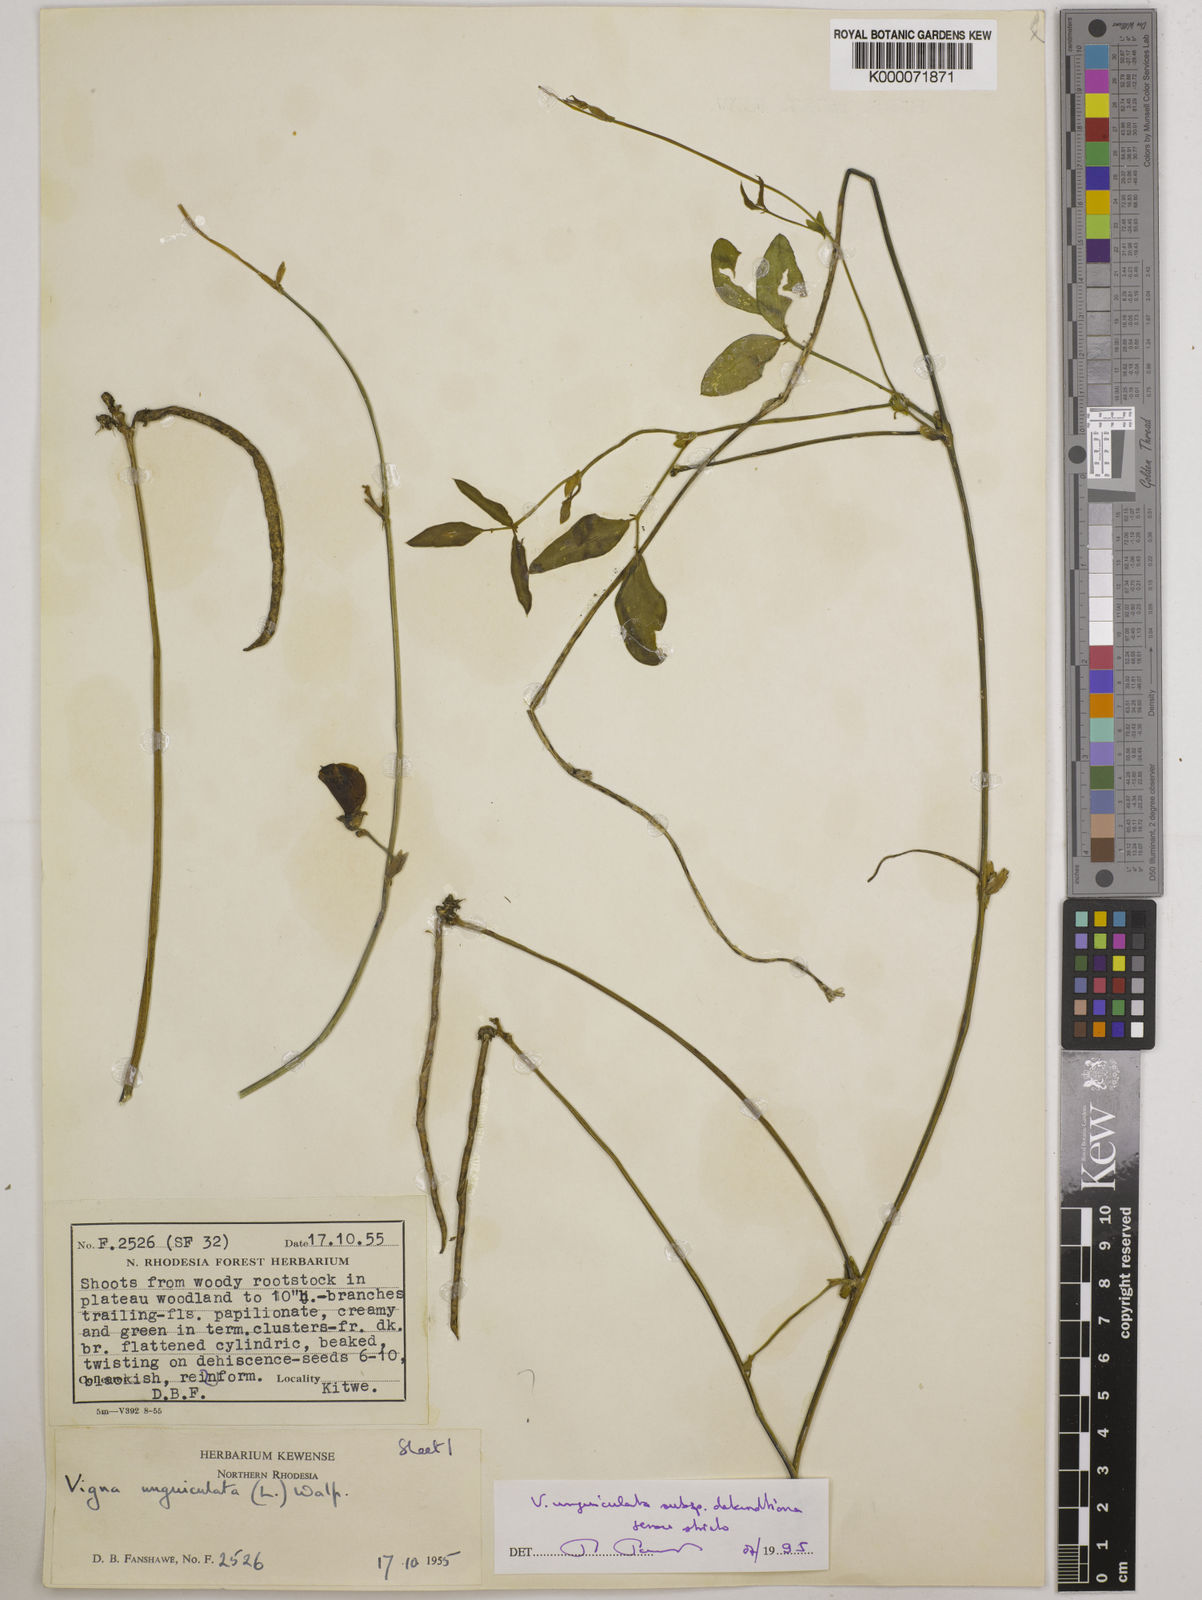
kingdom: Plantae
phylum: Tracheophyta
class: Magnoliopsida
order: Fabales
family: Fabaceae
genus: Vigna
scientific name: Vigna unguiculata
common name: Cowpea
